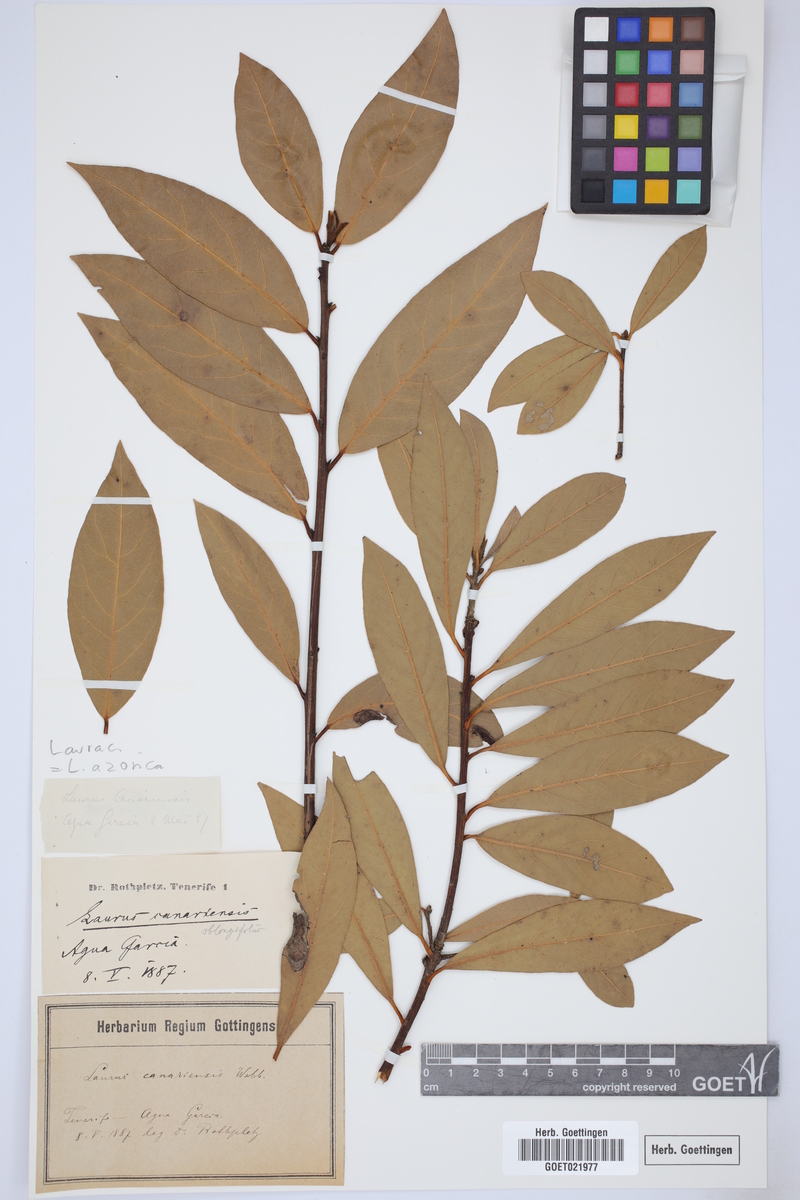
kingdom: Plantae
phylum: Tracheophyta
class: Magnoliopsida
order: Laurales
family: Lauraceae
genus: Laurus
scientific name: Laurus azorica
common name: Macaronesian laurel
